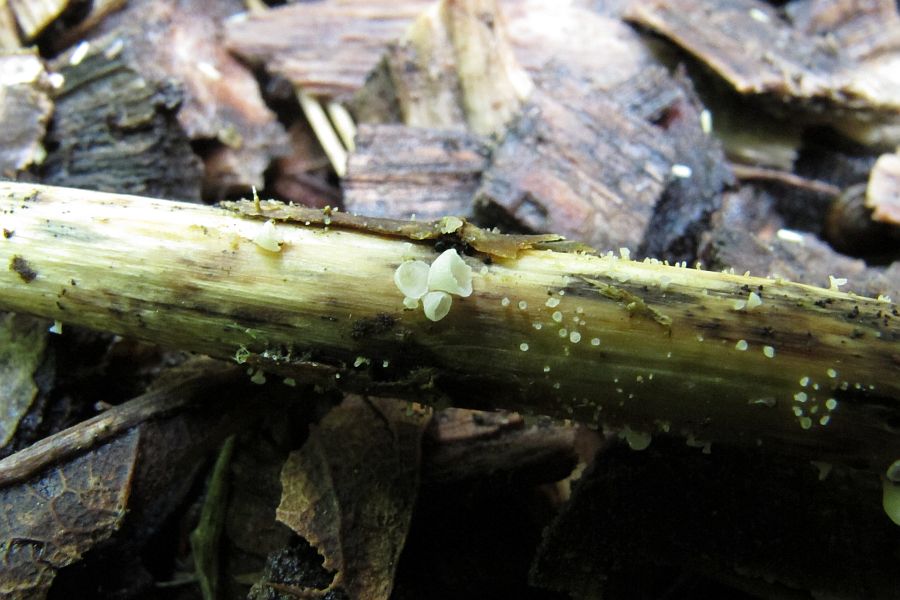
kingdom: Fungi
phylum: Basidiomycota
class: Agaricomycetes
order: Agaricales
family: Marasmiaceae
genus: Calyptella
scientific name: Calyptella capula
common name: hvidlig nældehue
